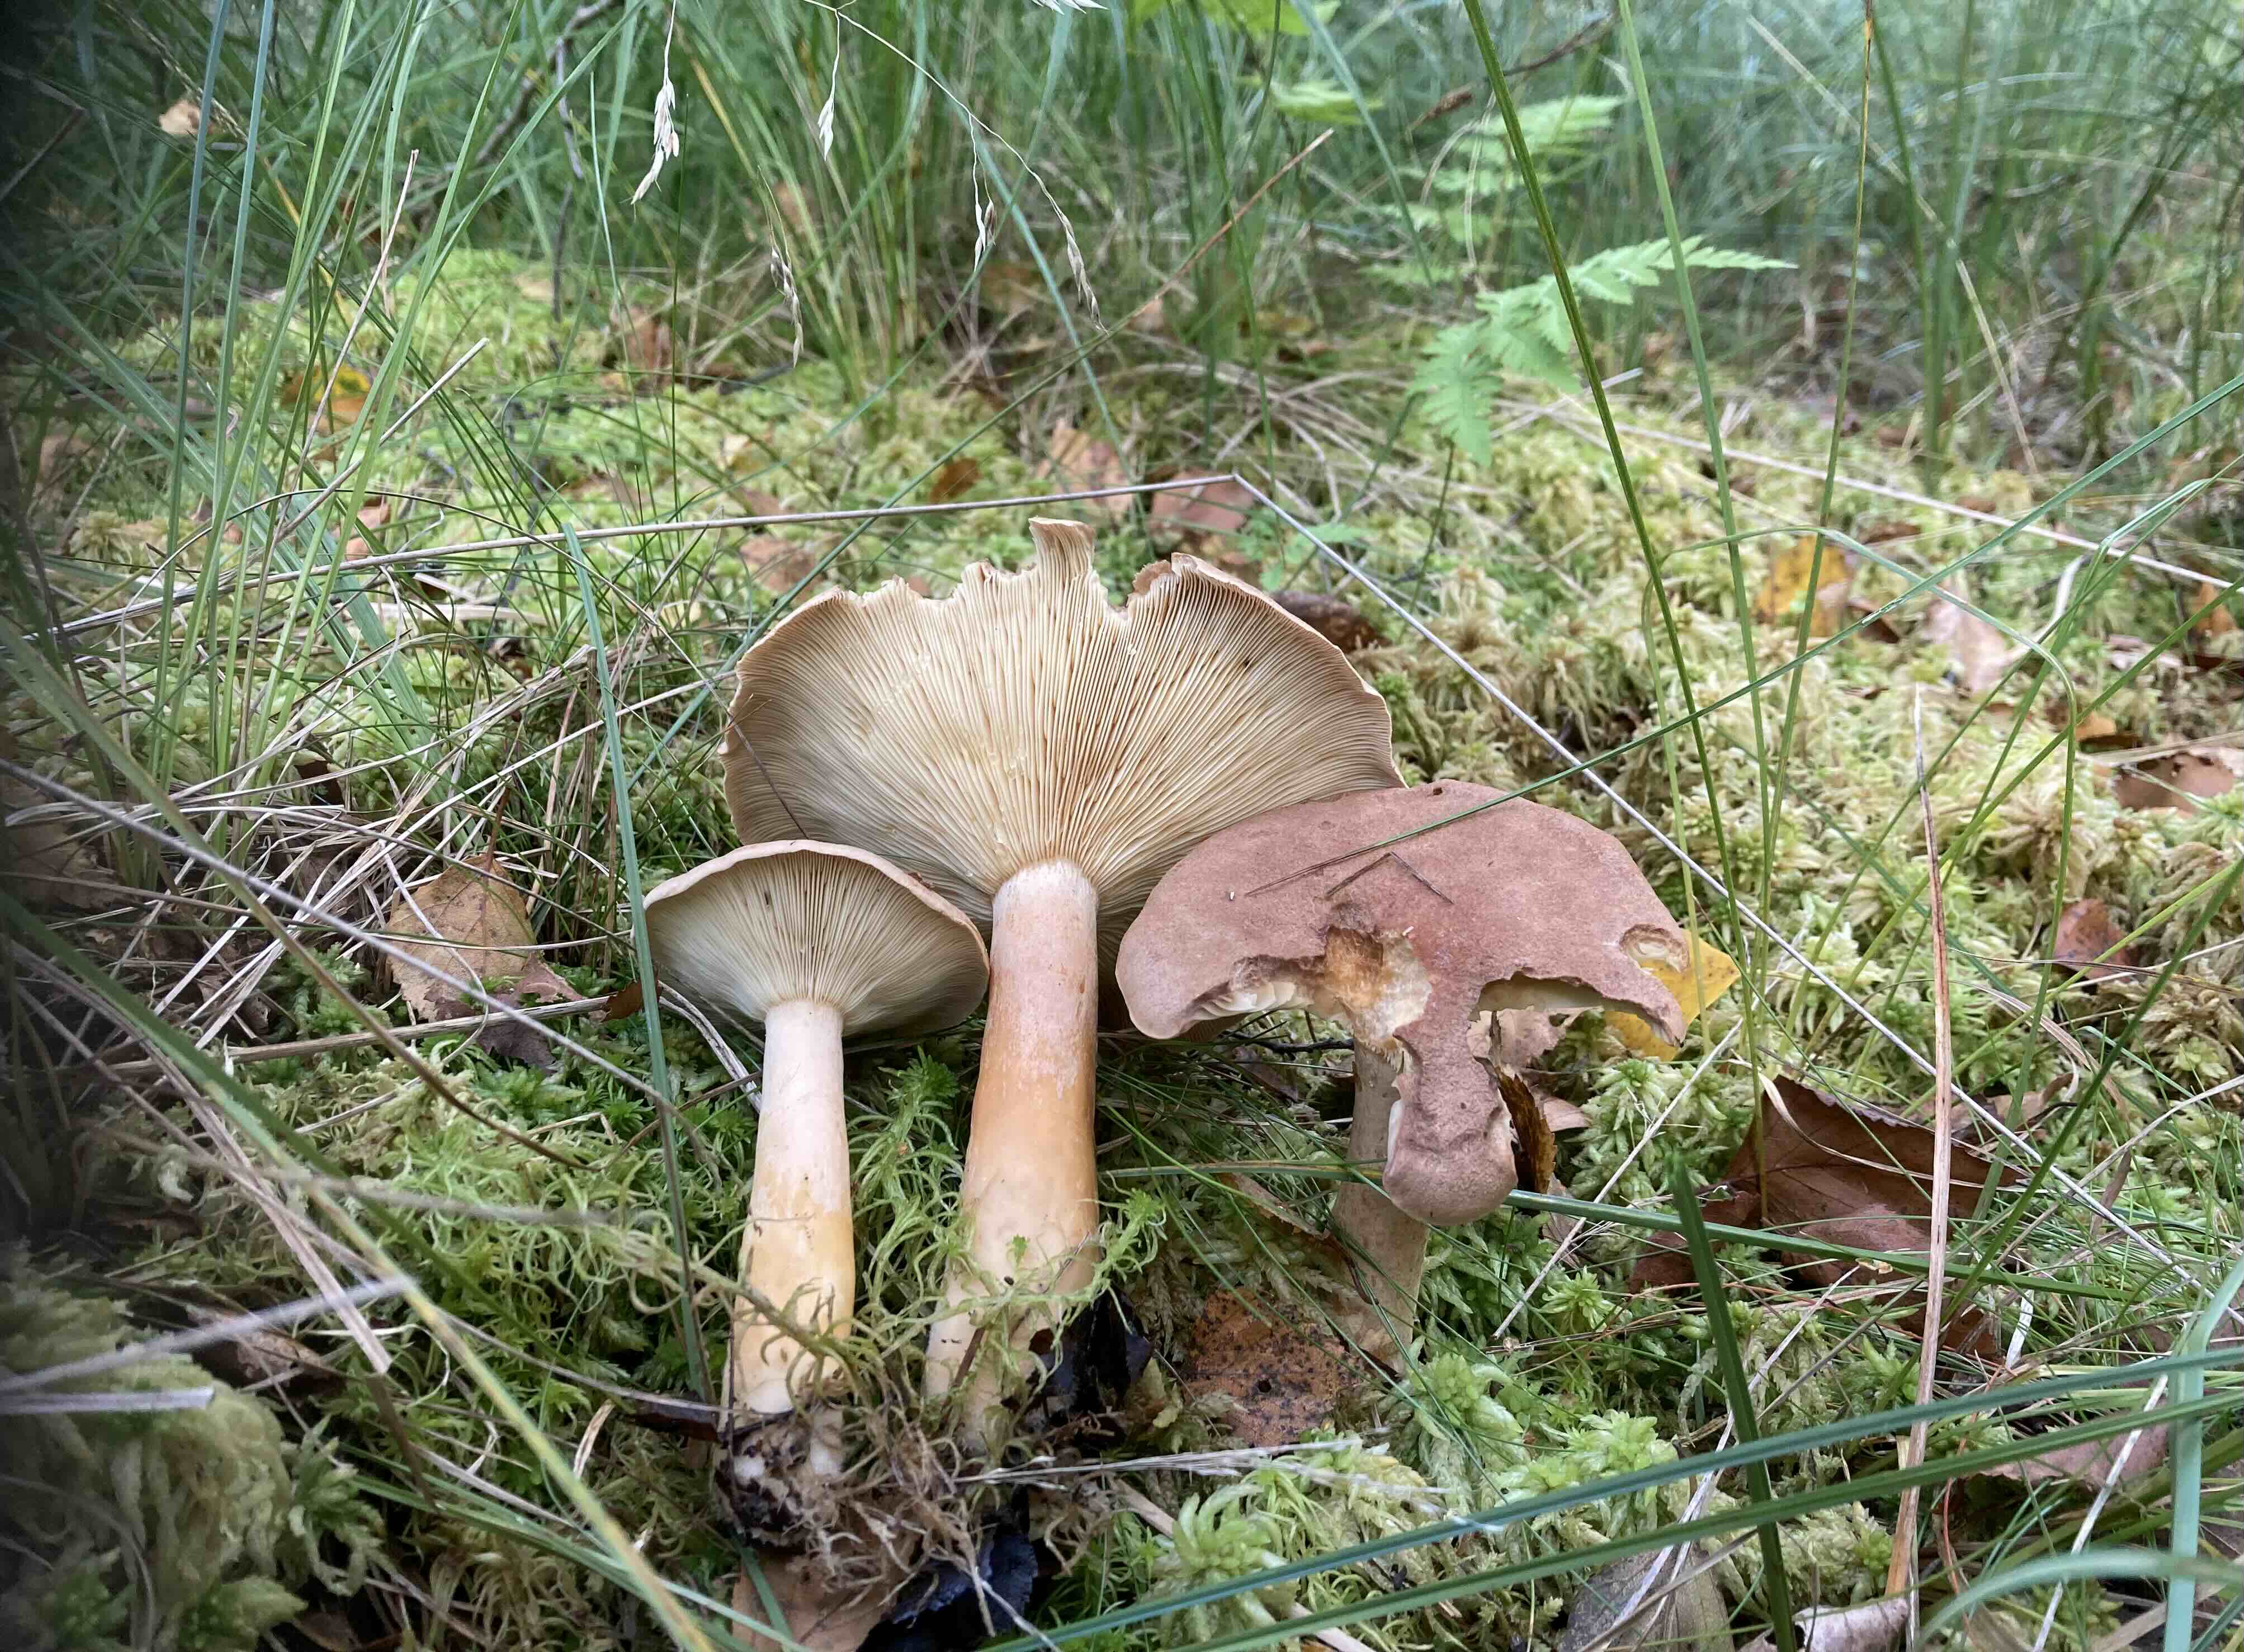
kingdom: Fungi
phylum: Basidiomycota
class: Agaricomycetes
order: Russulales
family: Russulaceae
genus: Lactarius
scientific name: Lactarius helvus
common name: mose-mælkehat
